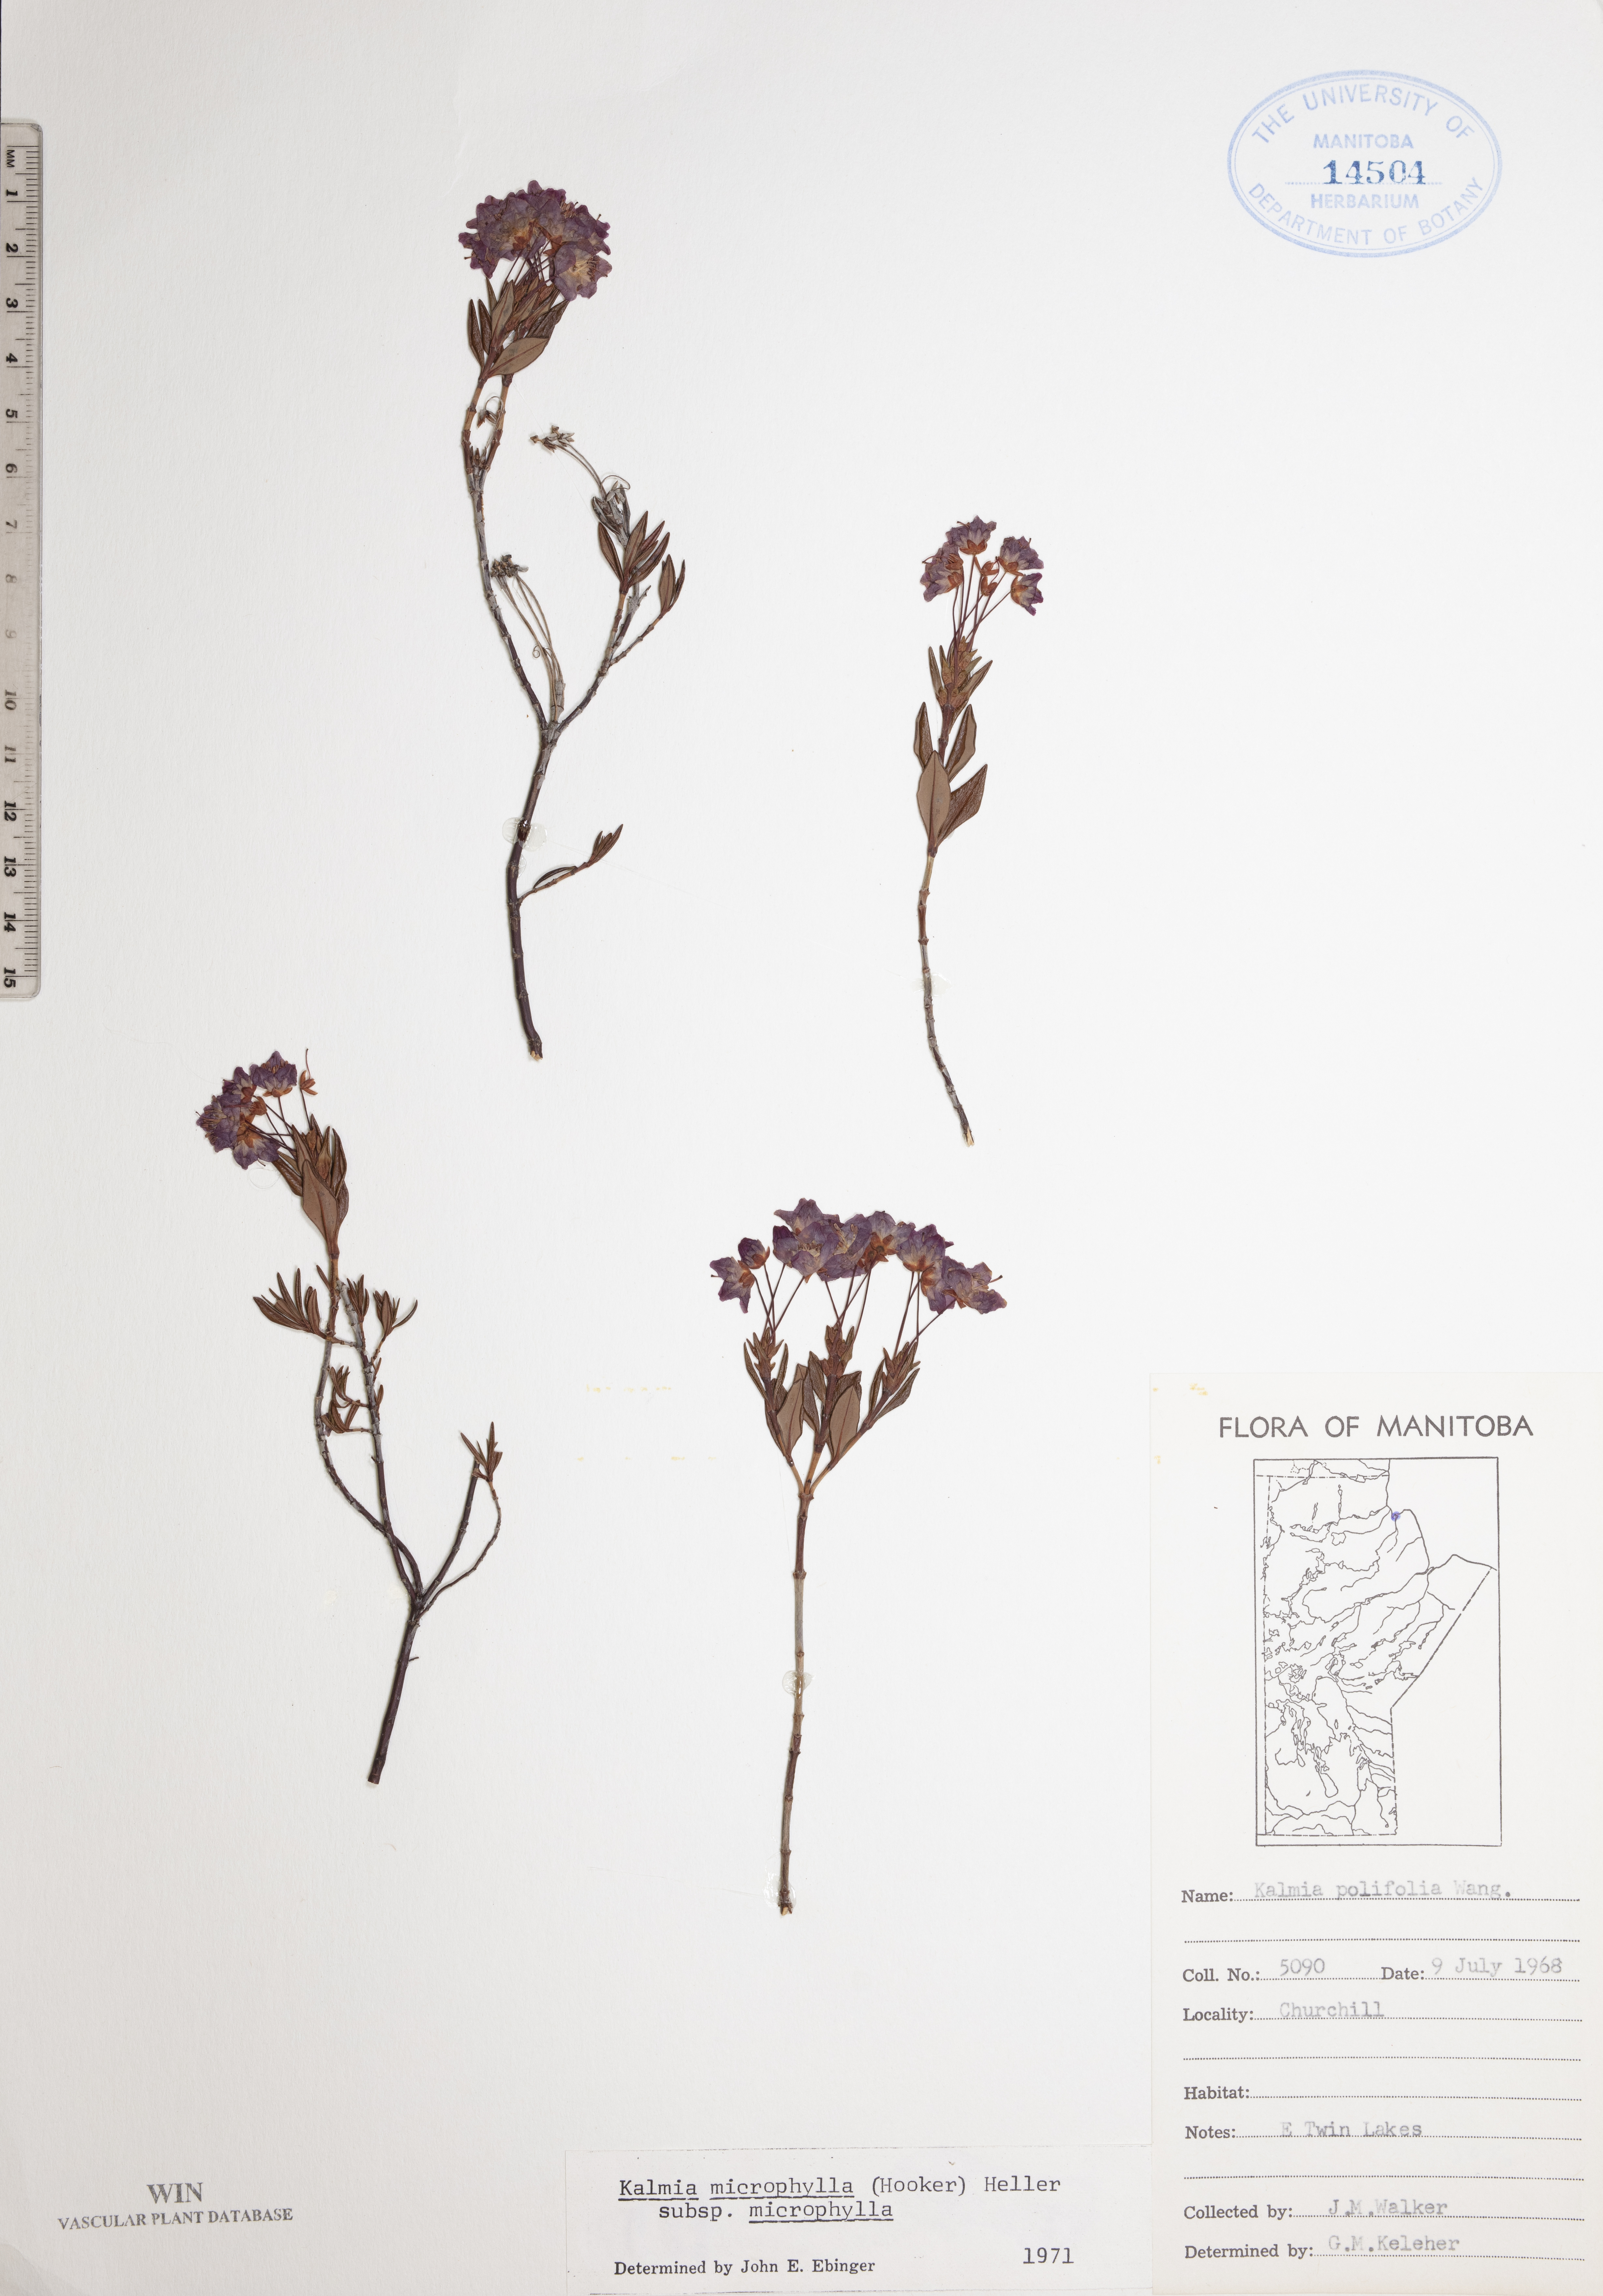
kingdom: Plantae
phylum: Tracheophyta
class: Magnoliopsida
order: Ericales
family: Ericaceae
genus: Kalmia
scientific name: Kalmia microphylla
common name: Alpine bog laurel
